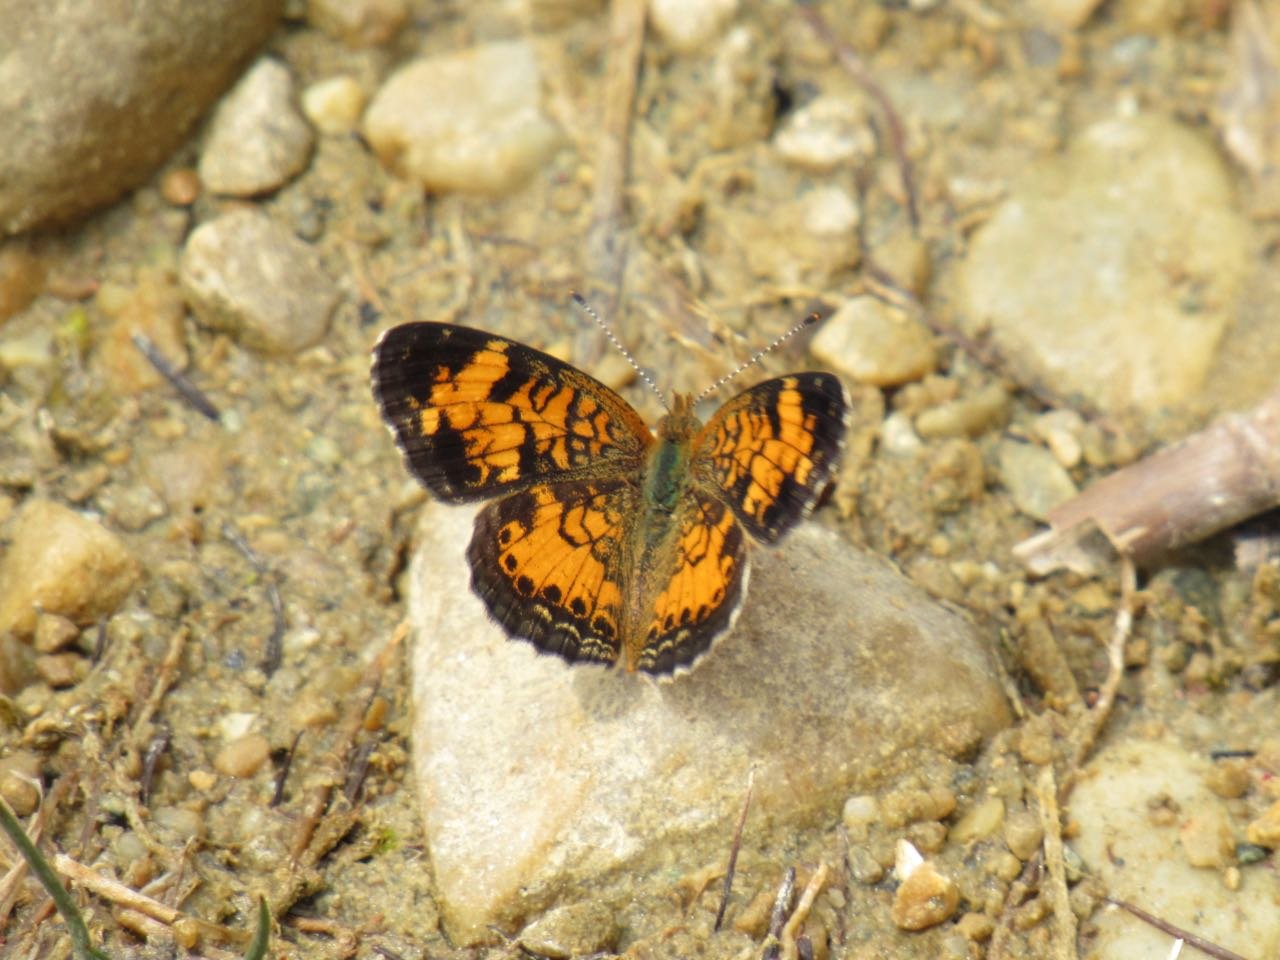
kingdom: Animalia
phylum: Arthropoda
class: Insecta
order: Lepidoptera
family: Nymphalidae
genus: Phyciodes
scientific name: Phyciodes tharos
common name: Pearl Crescent
